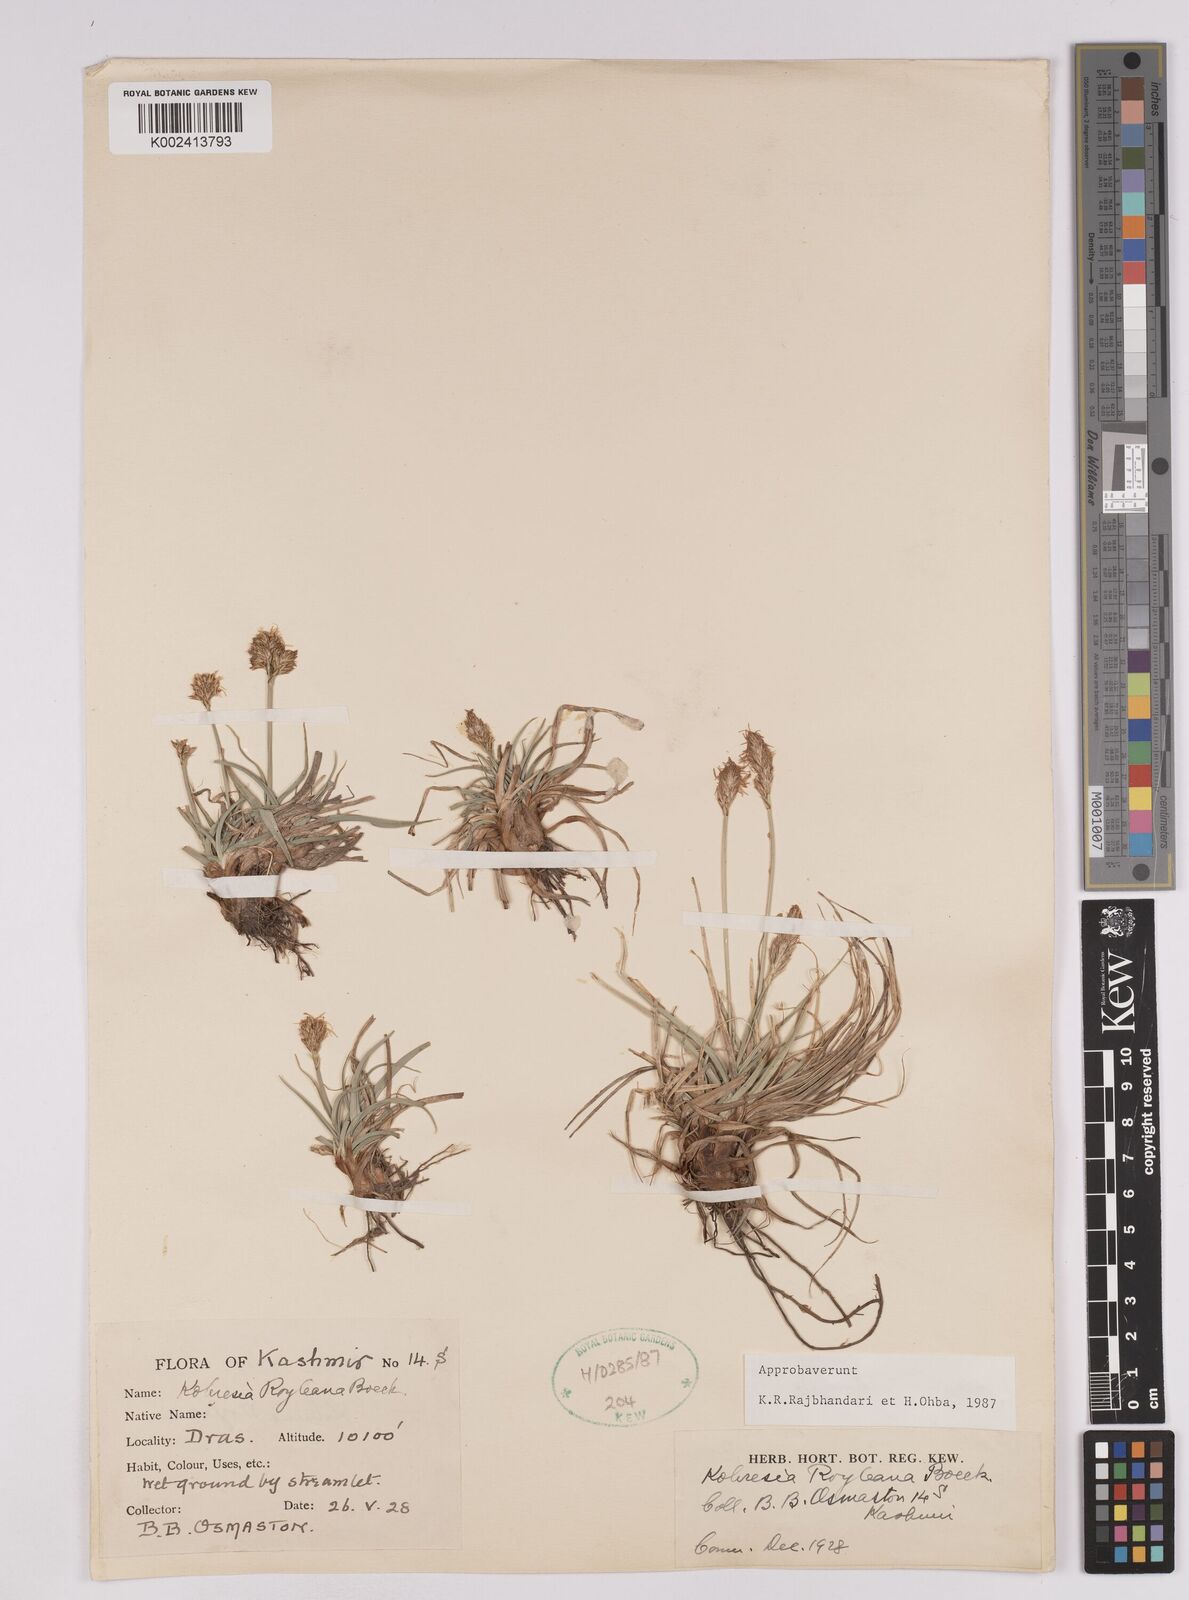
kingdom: Plantae
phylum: Tracheophyta
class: Liliopsida
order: Poales
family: Cyperaceae
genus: Carex
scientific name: Carex kokanica
